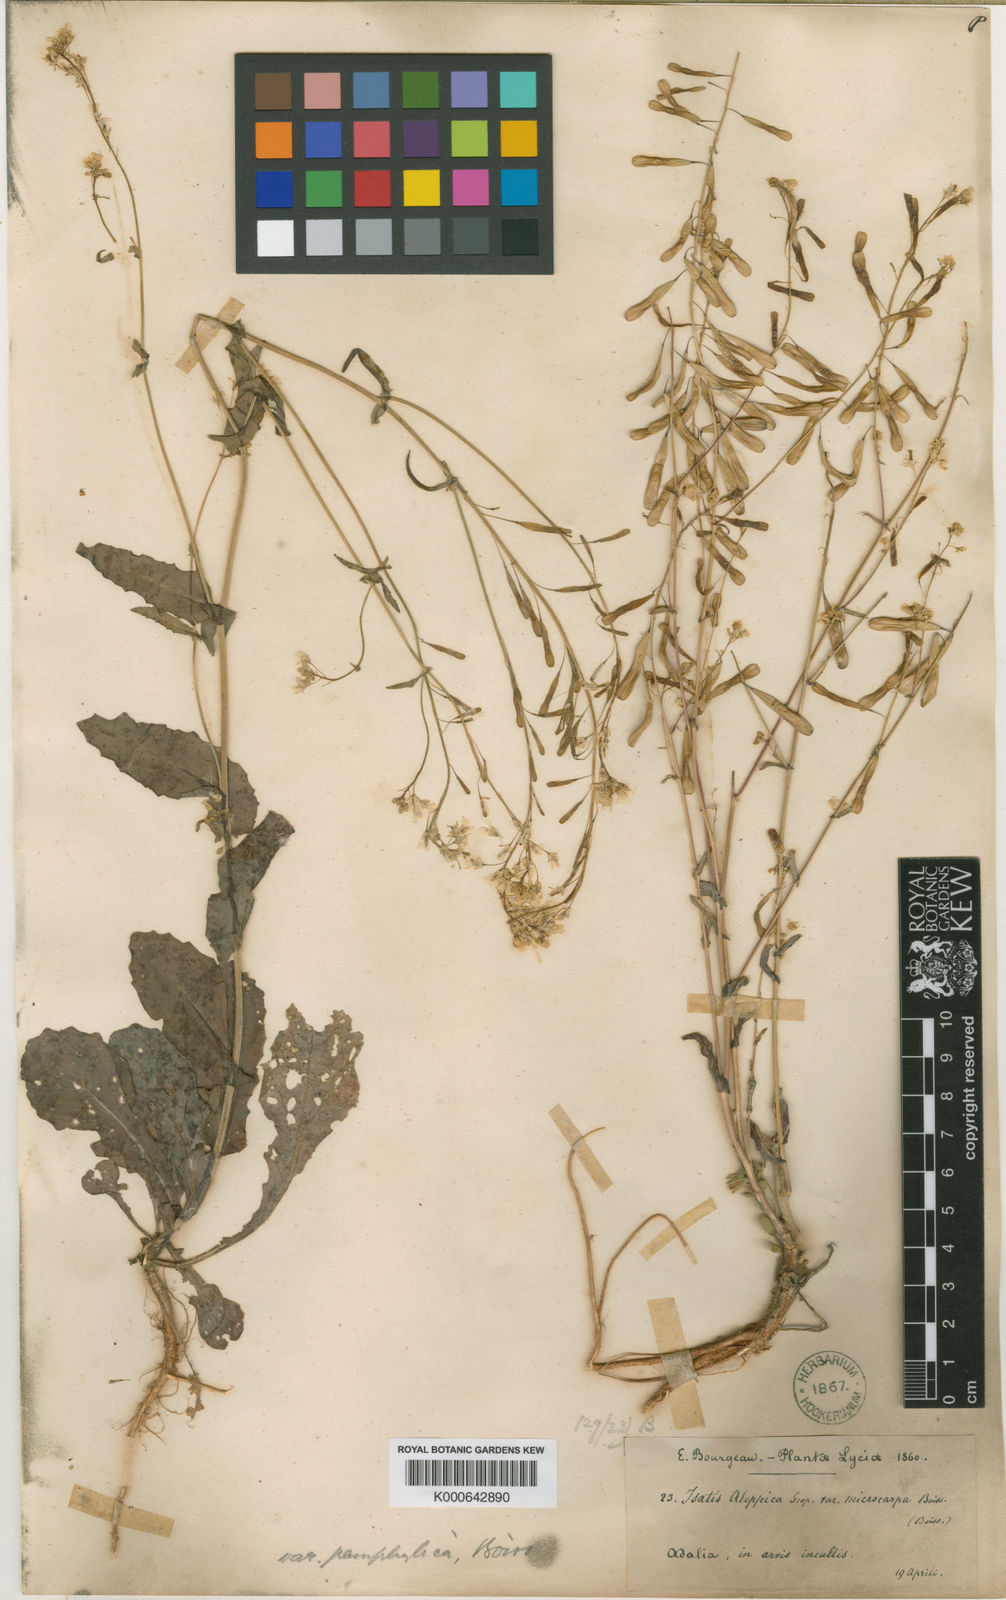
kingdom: Plantae
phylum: Tracheophyta
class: Magnoliopsida
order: Brassicales
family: Brassicaceae
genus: Isatis
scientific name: Isatis lusitanica
